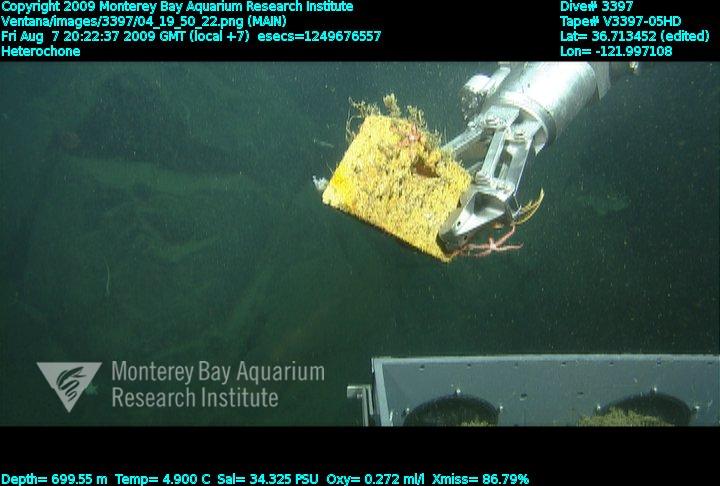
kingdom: Animalia
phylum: Porifera
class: Hexactinellida
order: Sceptrulophora
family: Aphrocallistidae
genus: Heterochone
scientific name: Heterochone
